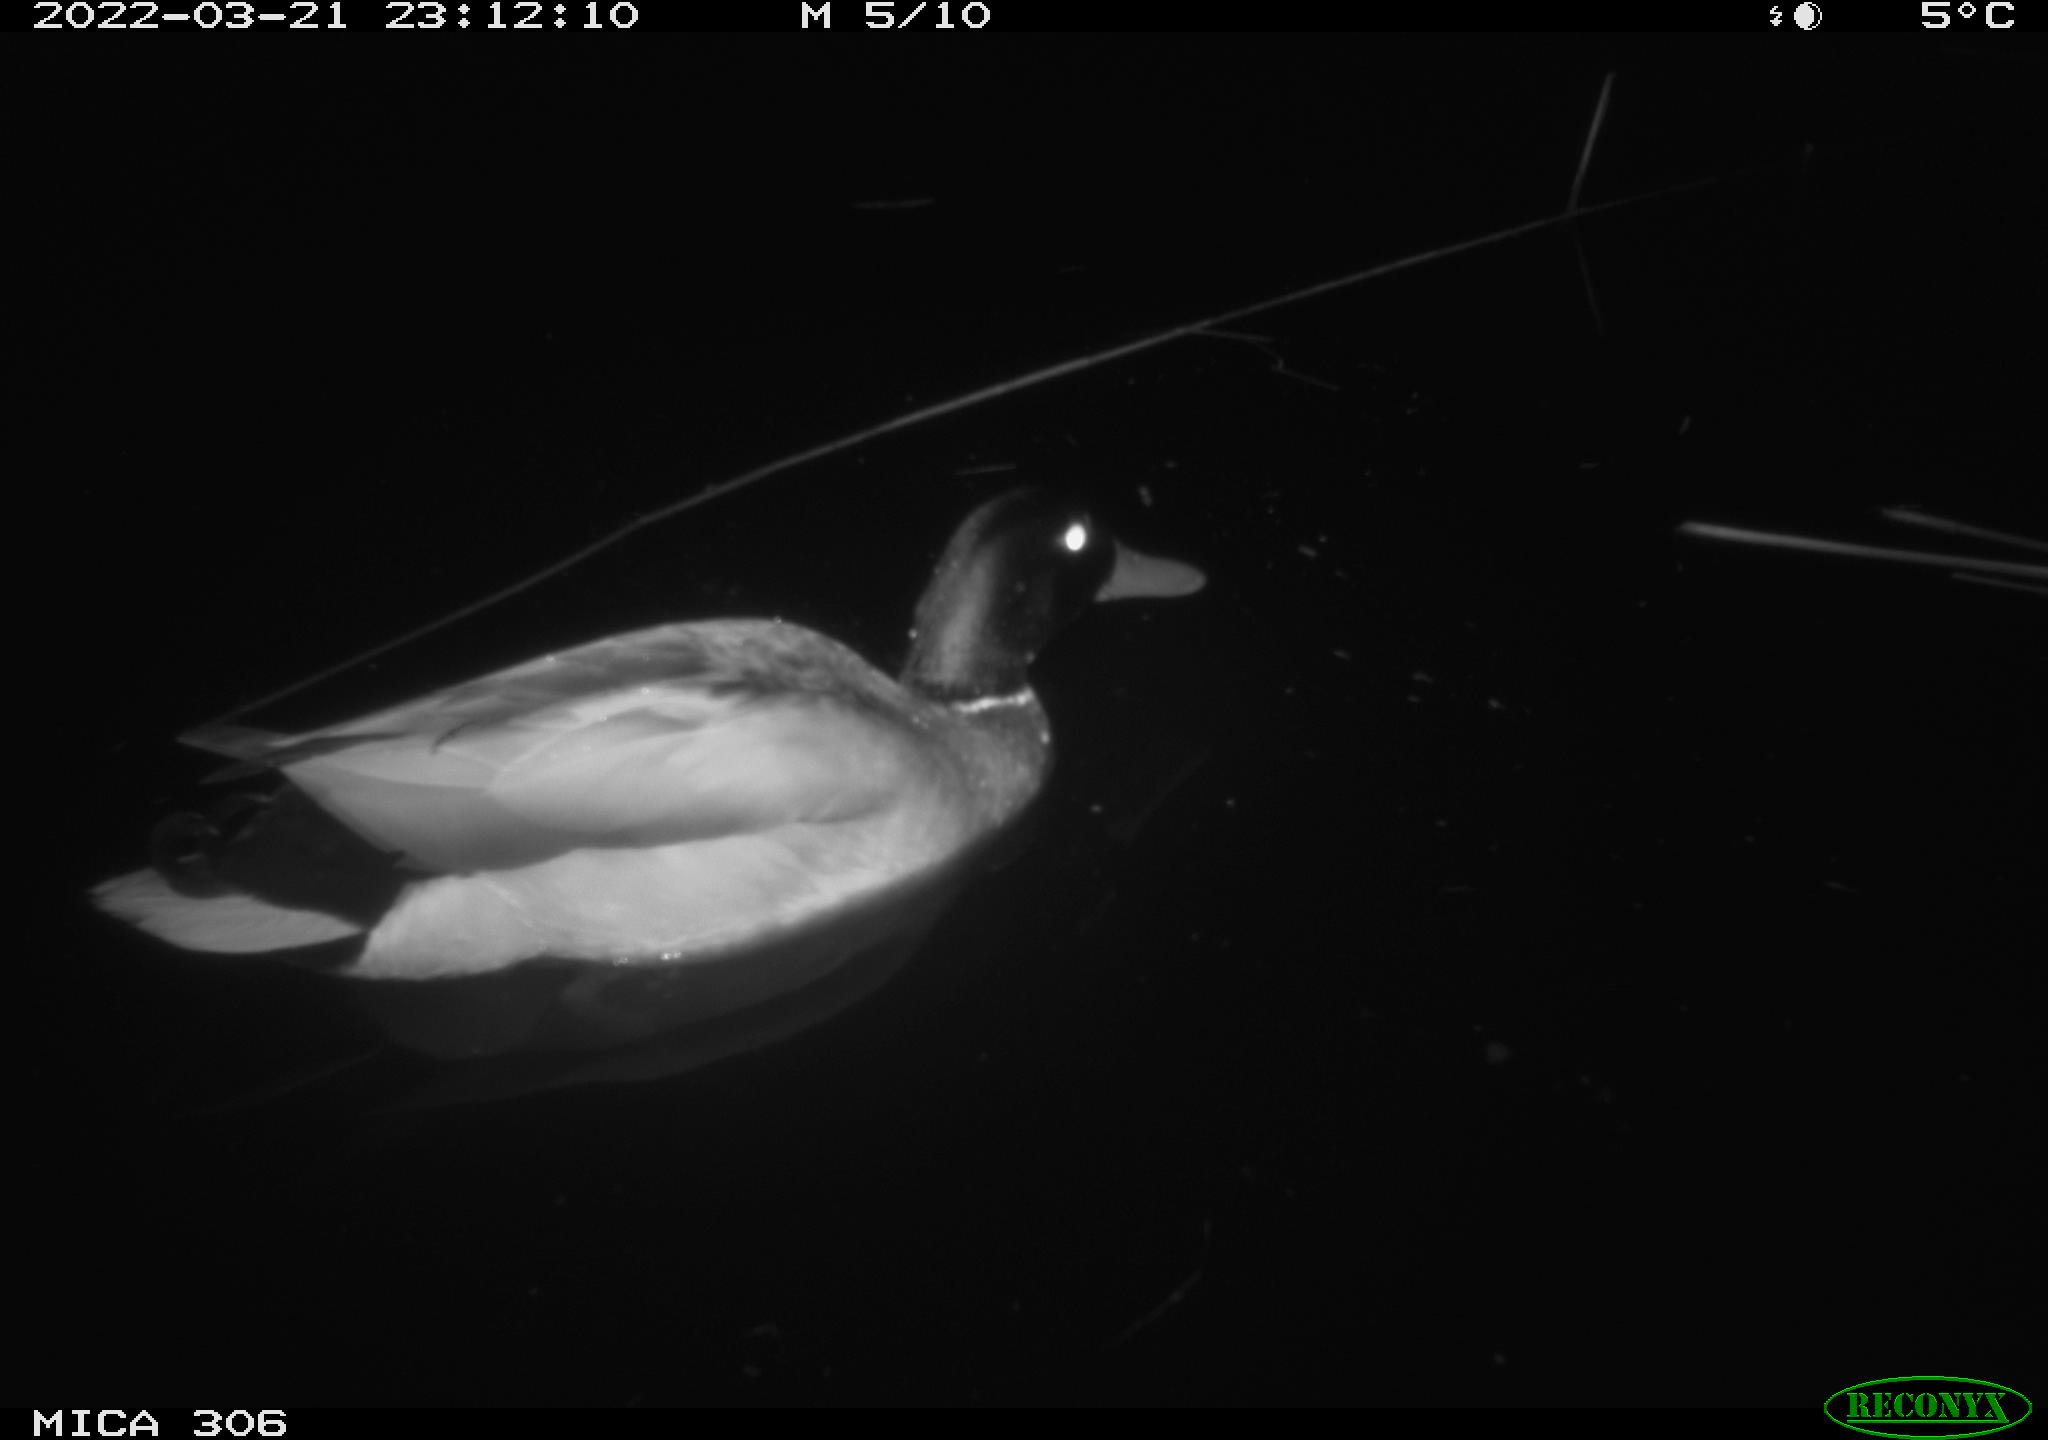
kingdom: Animalia
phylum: Chordata
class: Aves
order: Anseriformes
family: Anatidae
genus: Anas
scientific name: Anas
